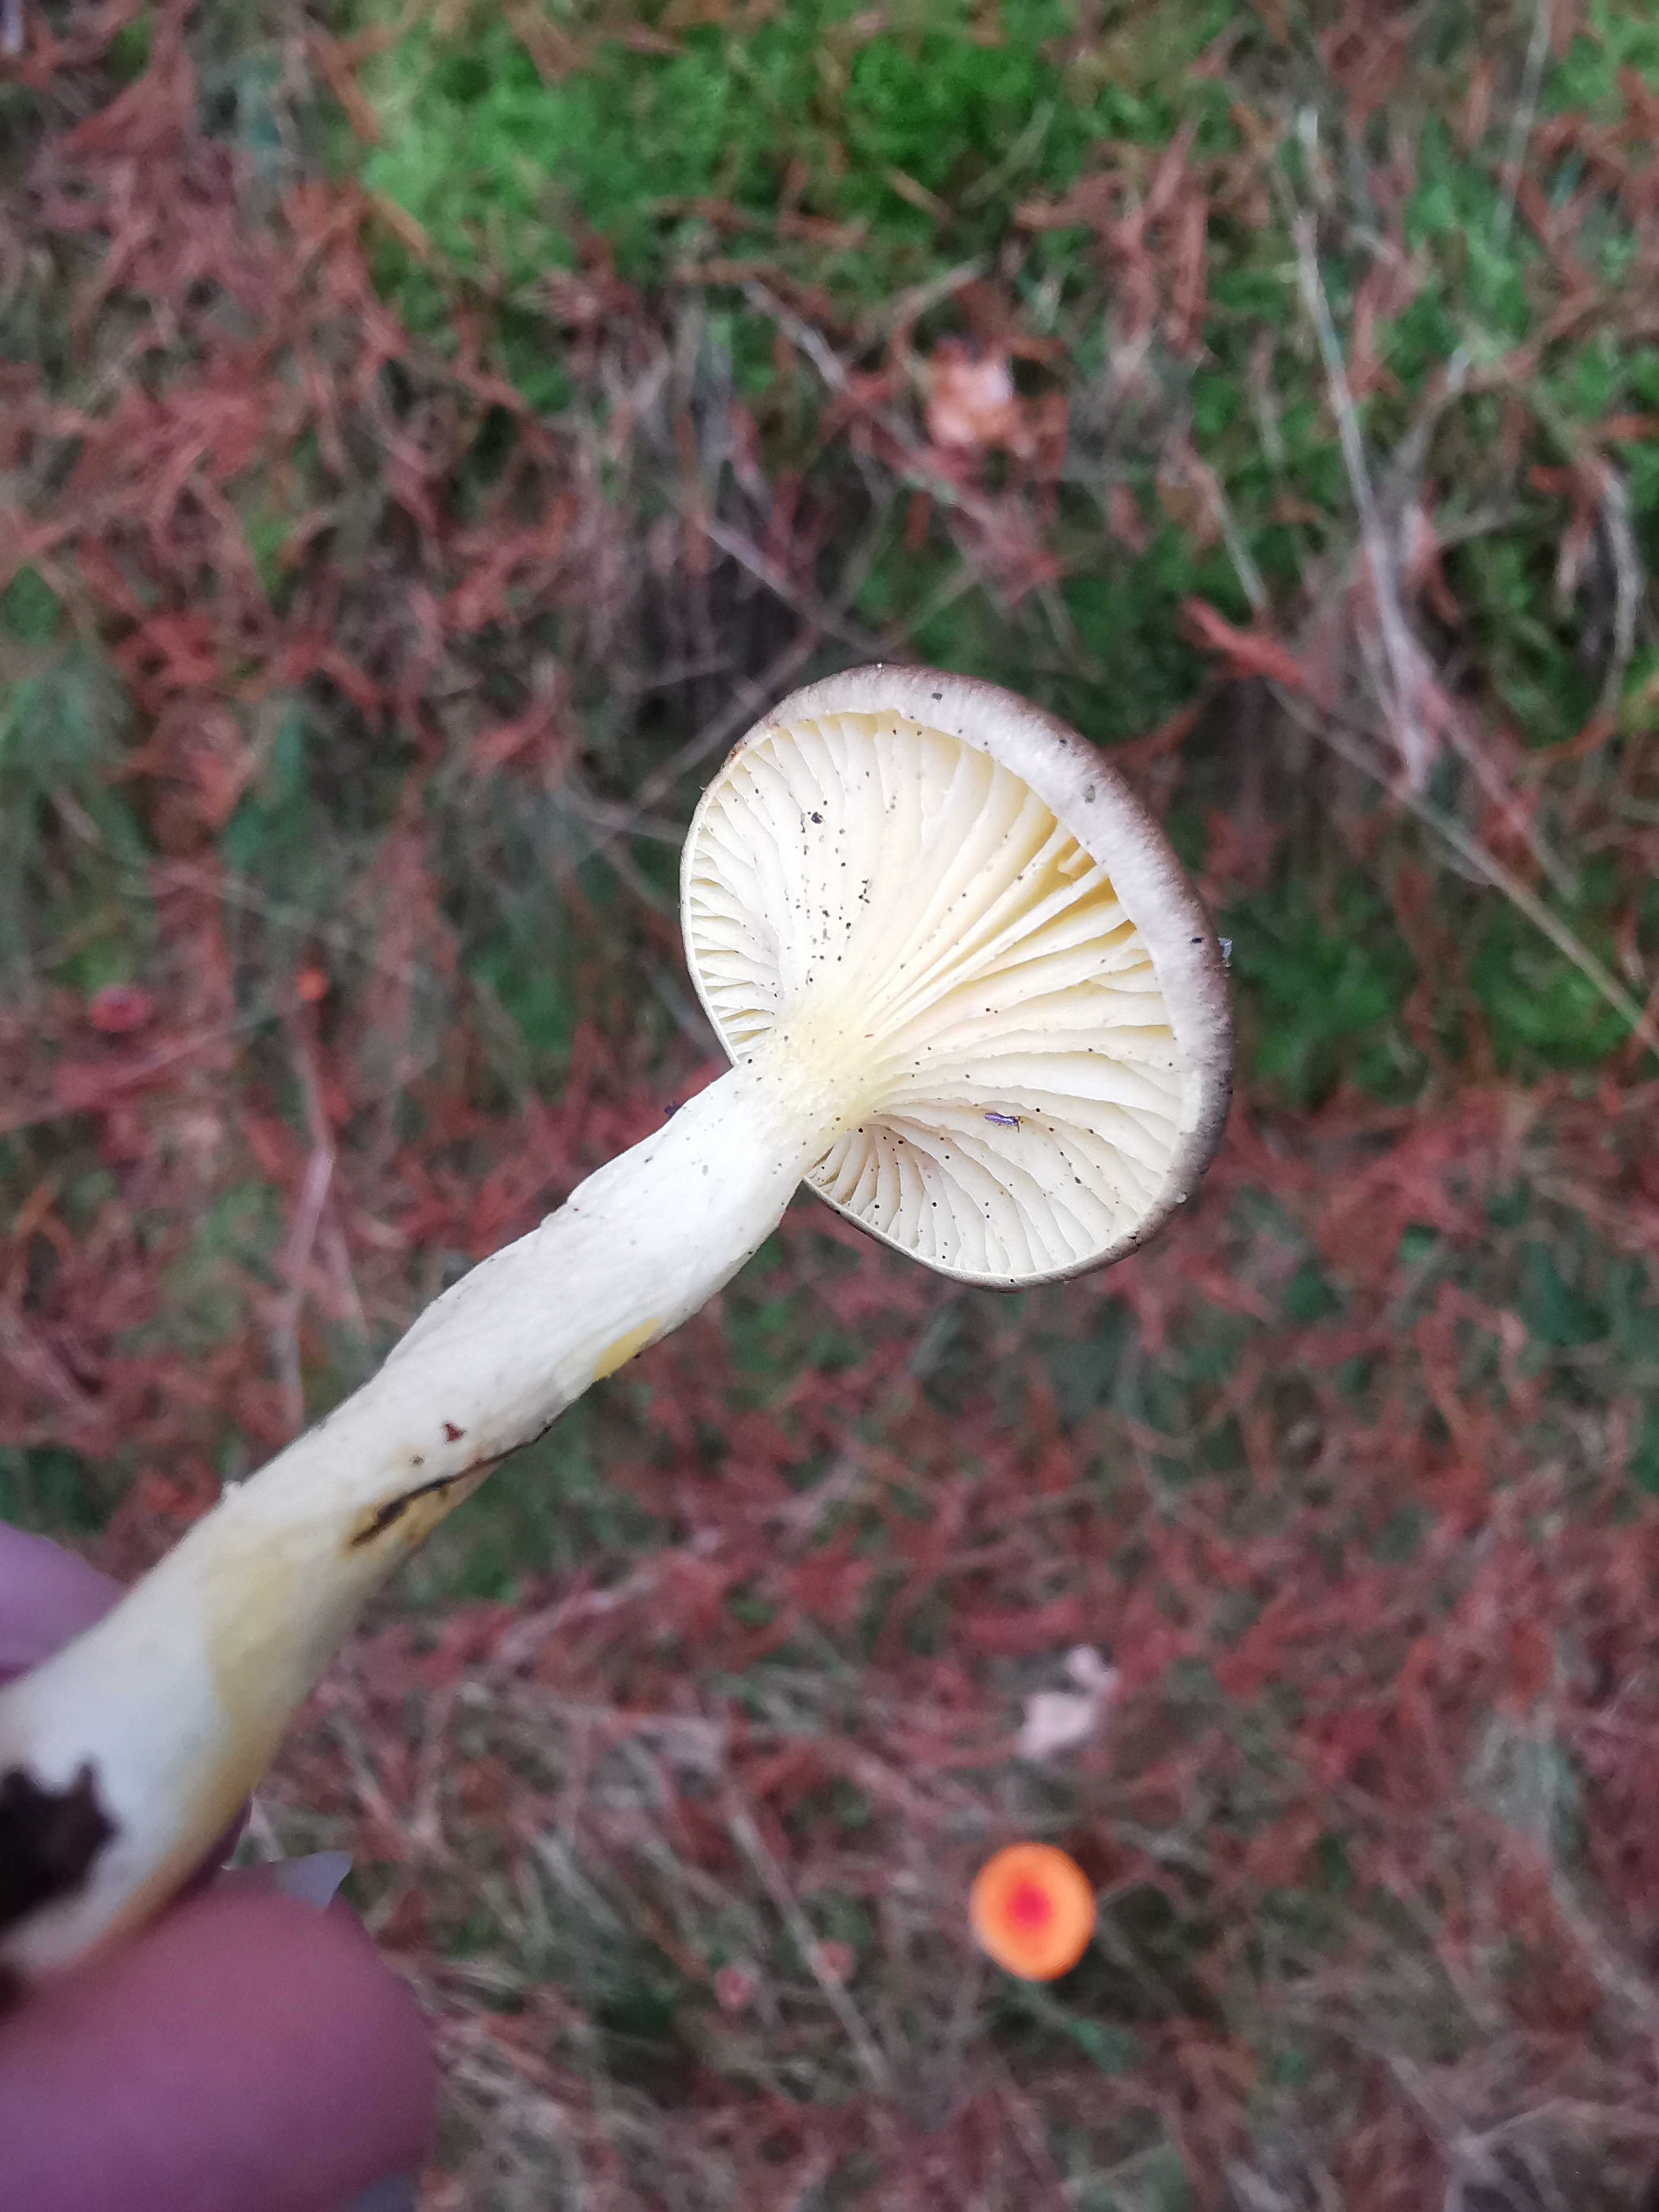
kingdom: Fungi
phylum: Basidiomycota
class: Agaricomycetes
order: Agaricales
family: Hygrophoraceae
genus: Hygrophorus
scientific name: Hygrophorus hypothejus
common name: frost-sneglehat
